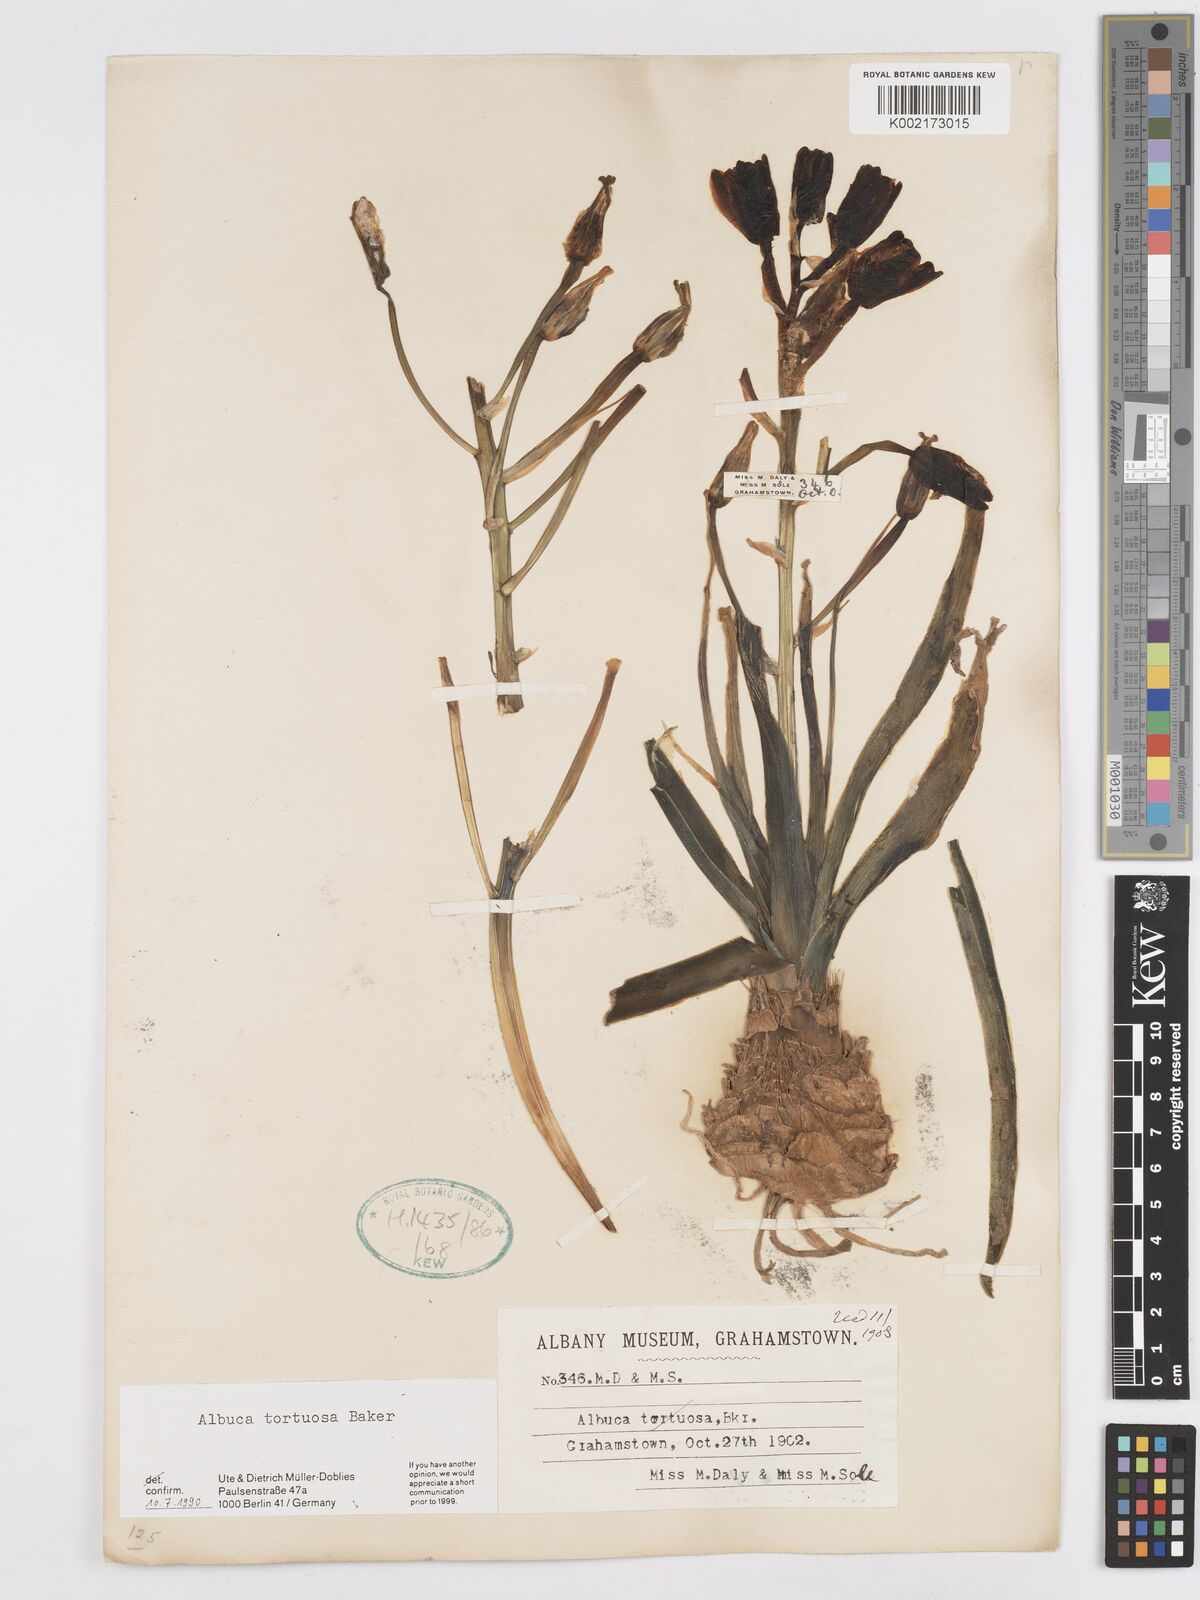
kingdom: Plantae
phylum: Tracheophyta
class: Liliopsida
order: Asparagales
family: Asparagaceae
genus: Albuca
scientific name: Albuca tortuosa
